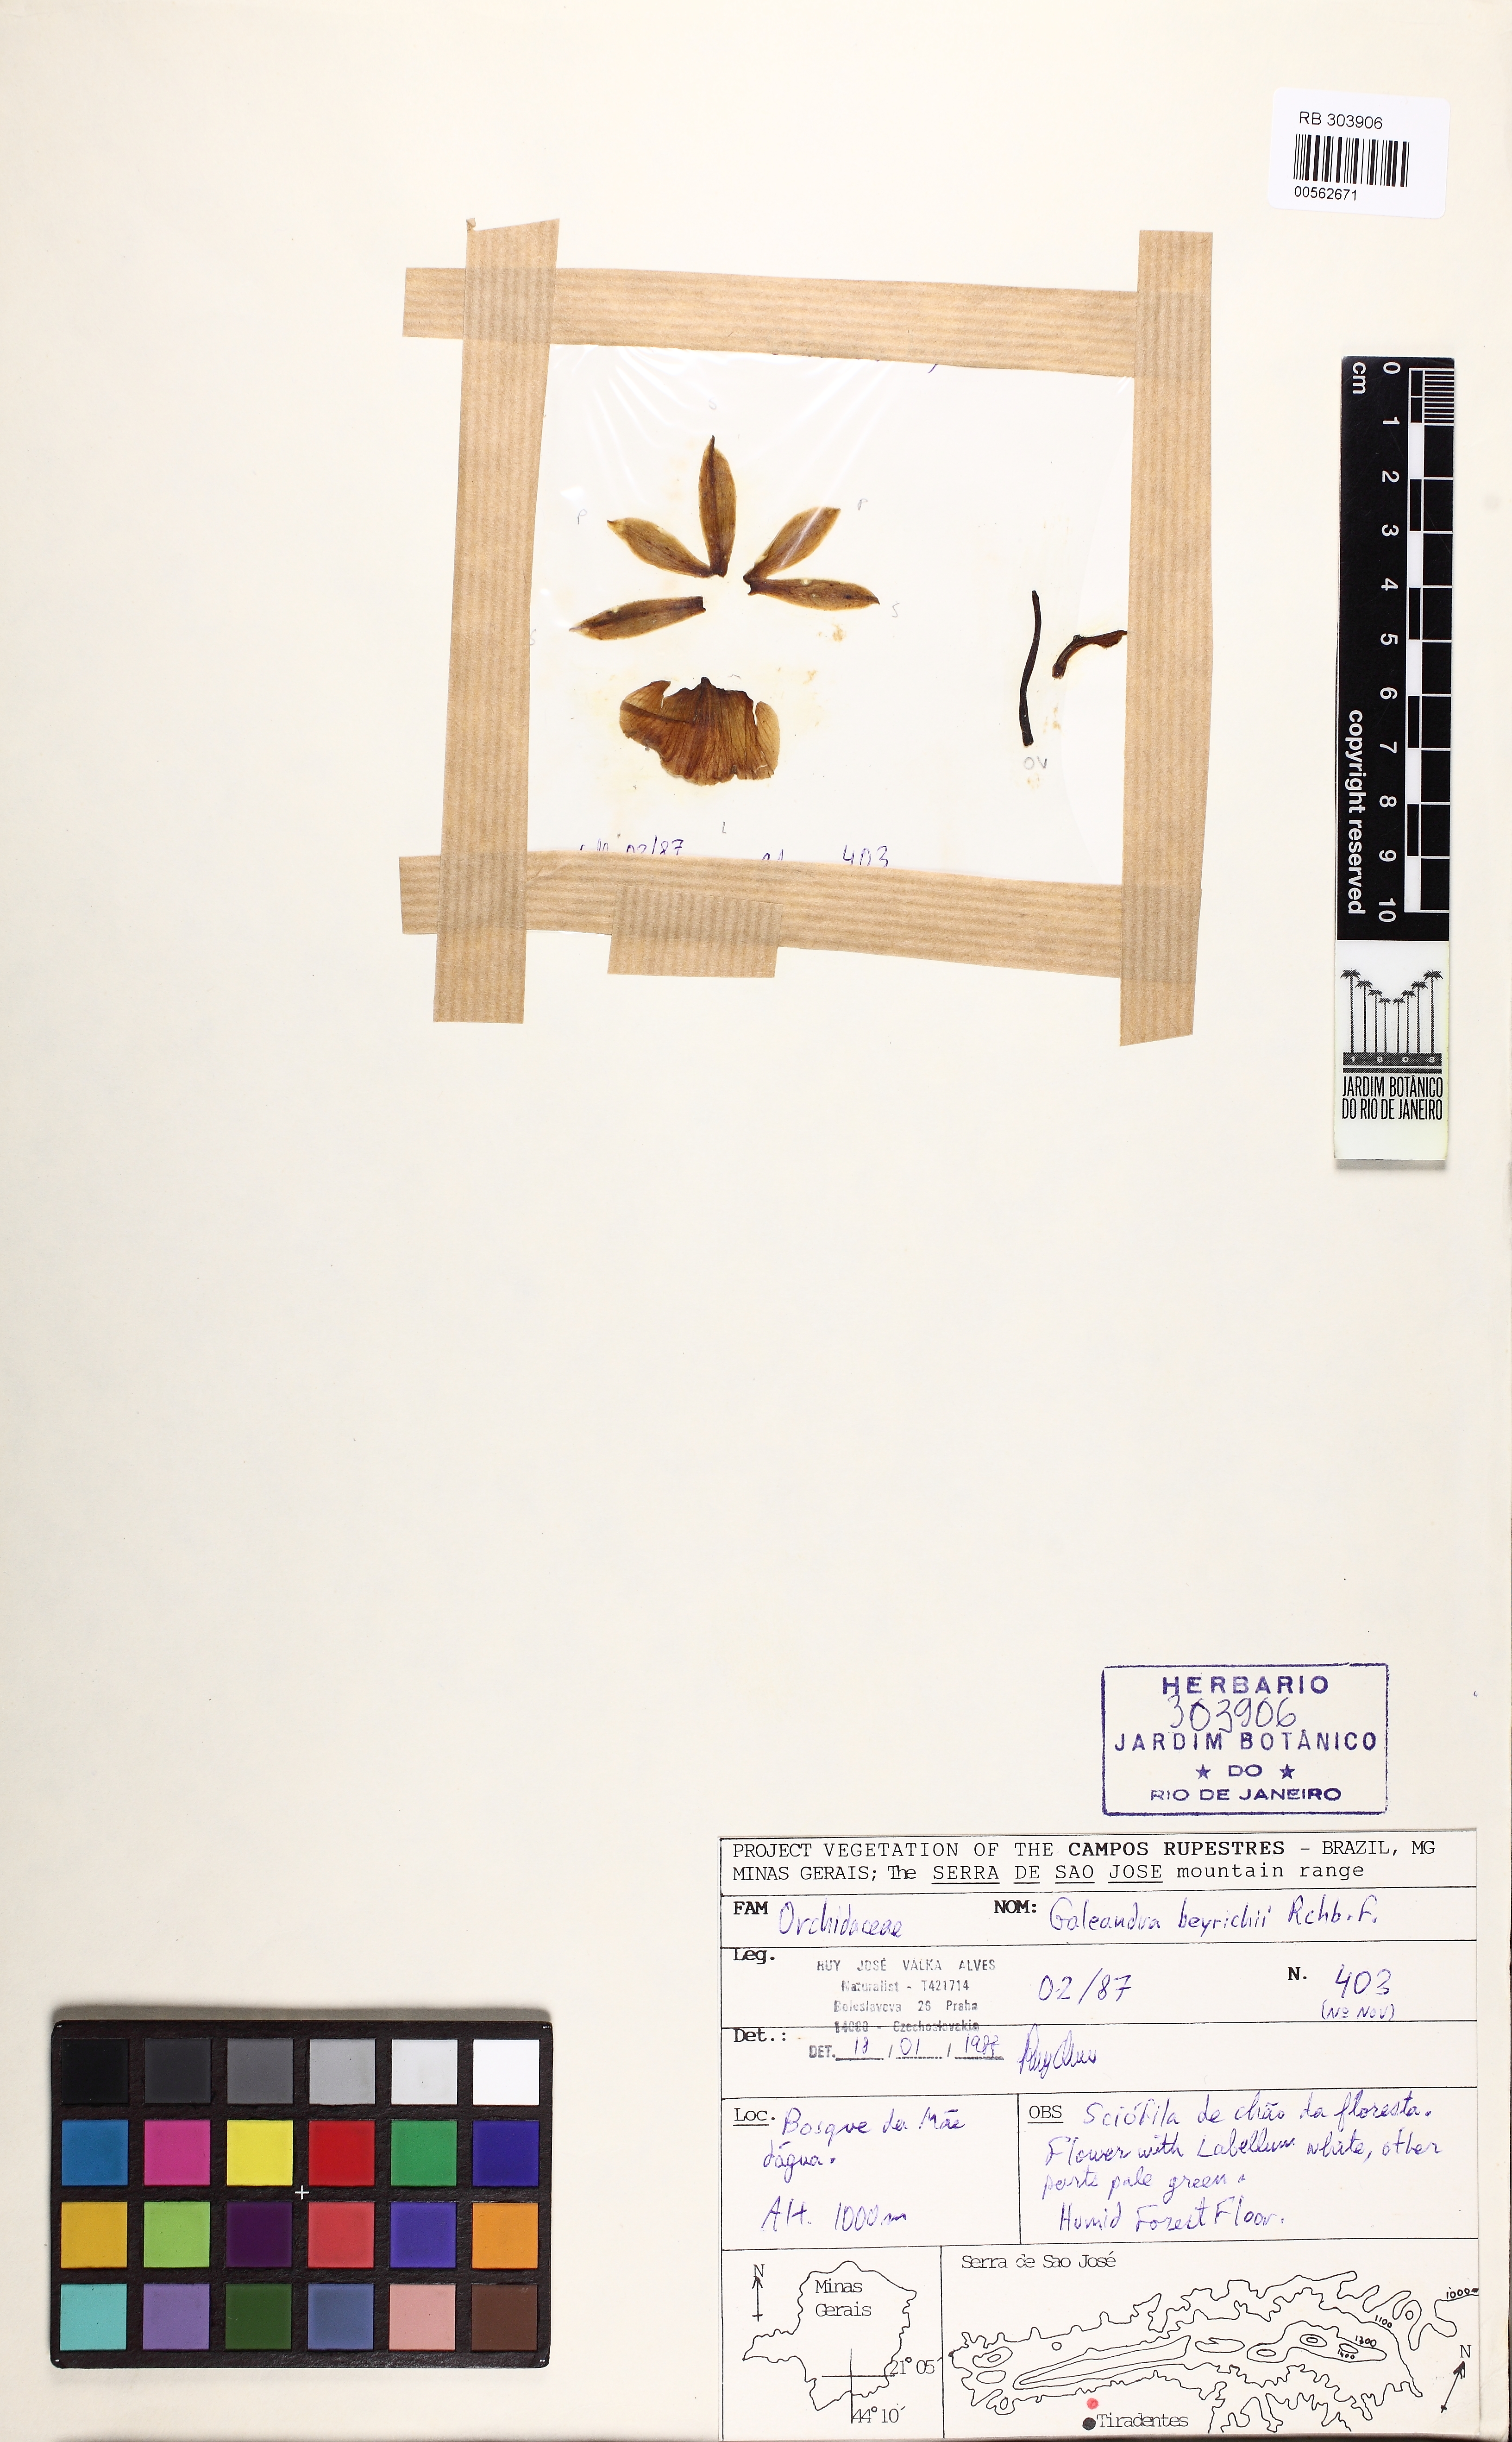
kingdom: Plantae
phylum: Tracheophyta
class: Liliopsida
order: Asparagales
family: Orchidaceae
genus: Galeandra
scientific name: Galeandra beyrichii
